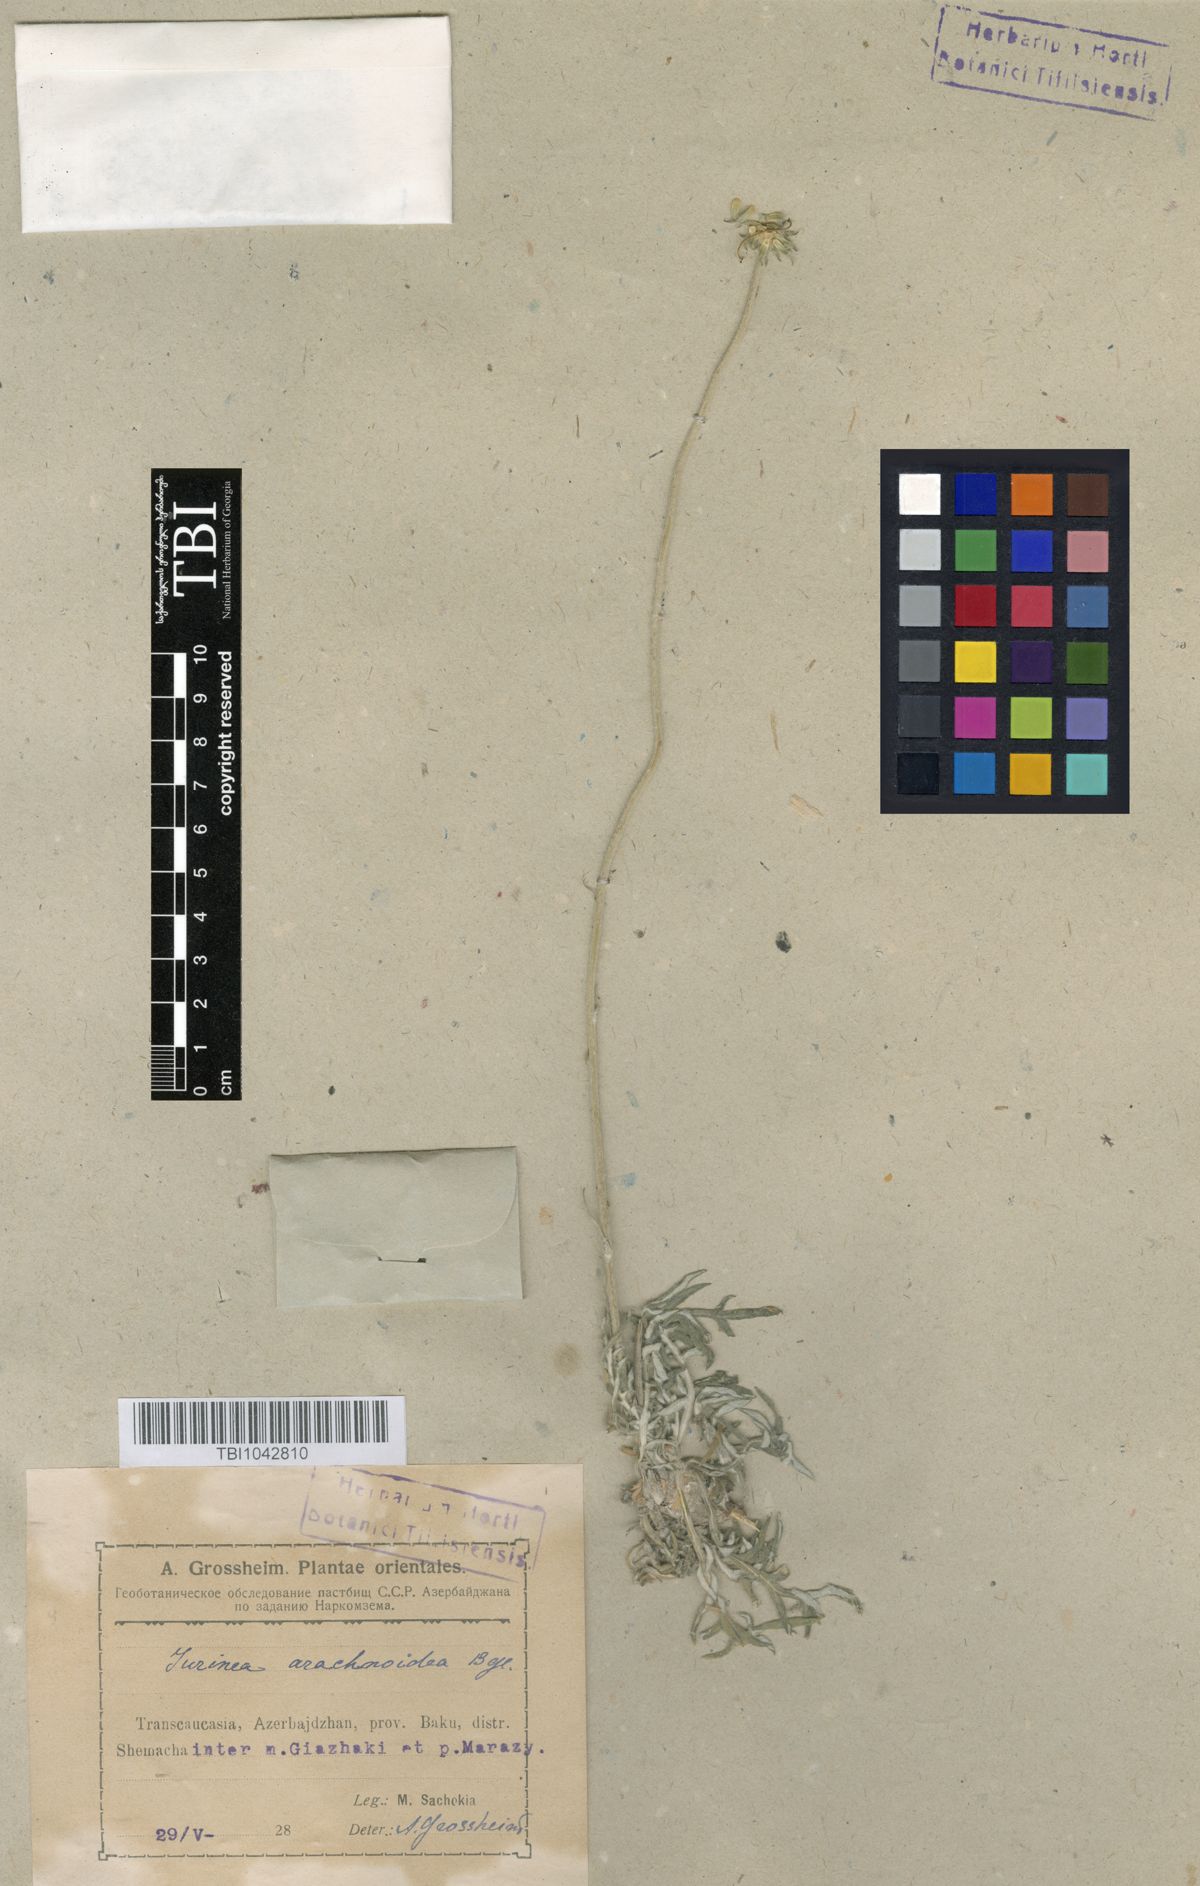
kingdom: Plantae
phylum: Tracheophyta
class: Magnoliopsida
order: Asterales
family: Asteraceae
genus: Jurinea
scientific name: Jurinea blanda
